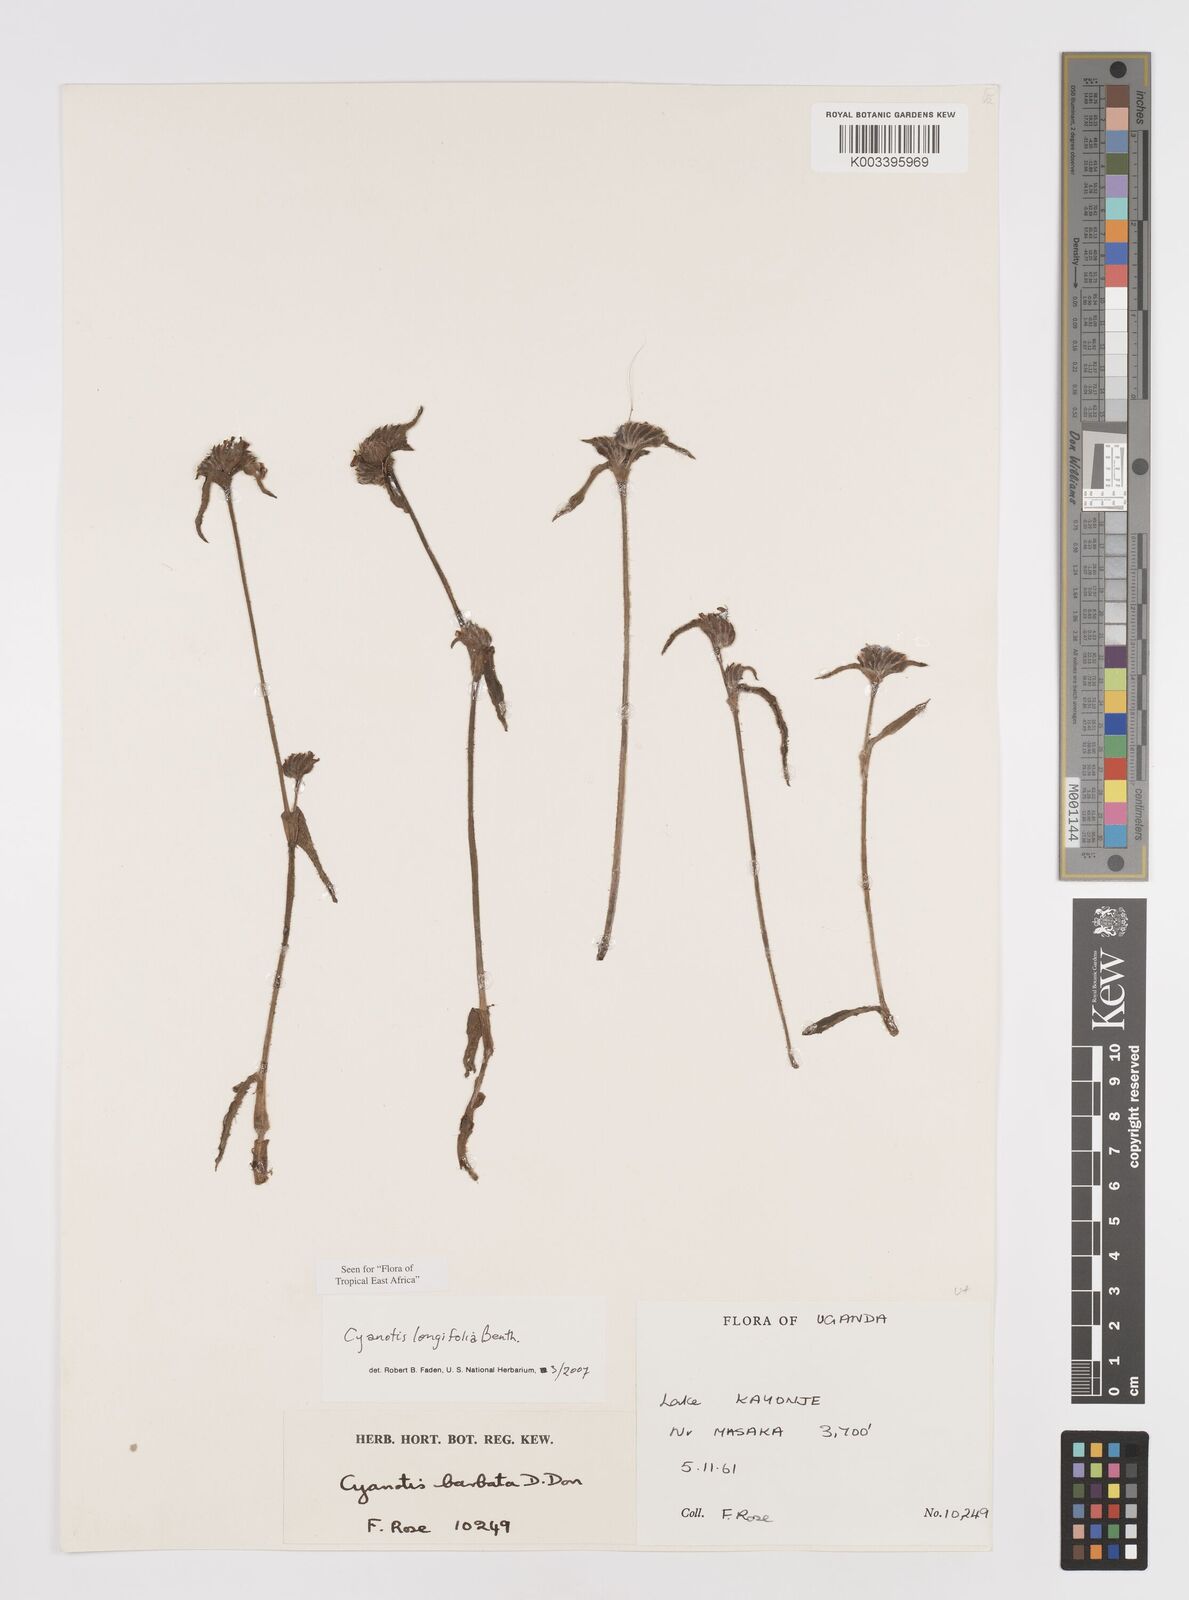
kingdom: Plantae
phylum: Tracheophyta
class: Liliopsida
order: Commelinales
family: Commelinaceae
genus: Cyanotis
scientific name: Cyanotis longifolia
